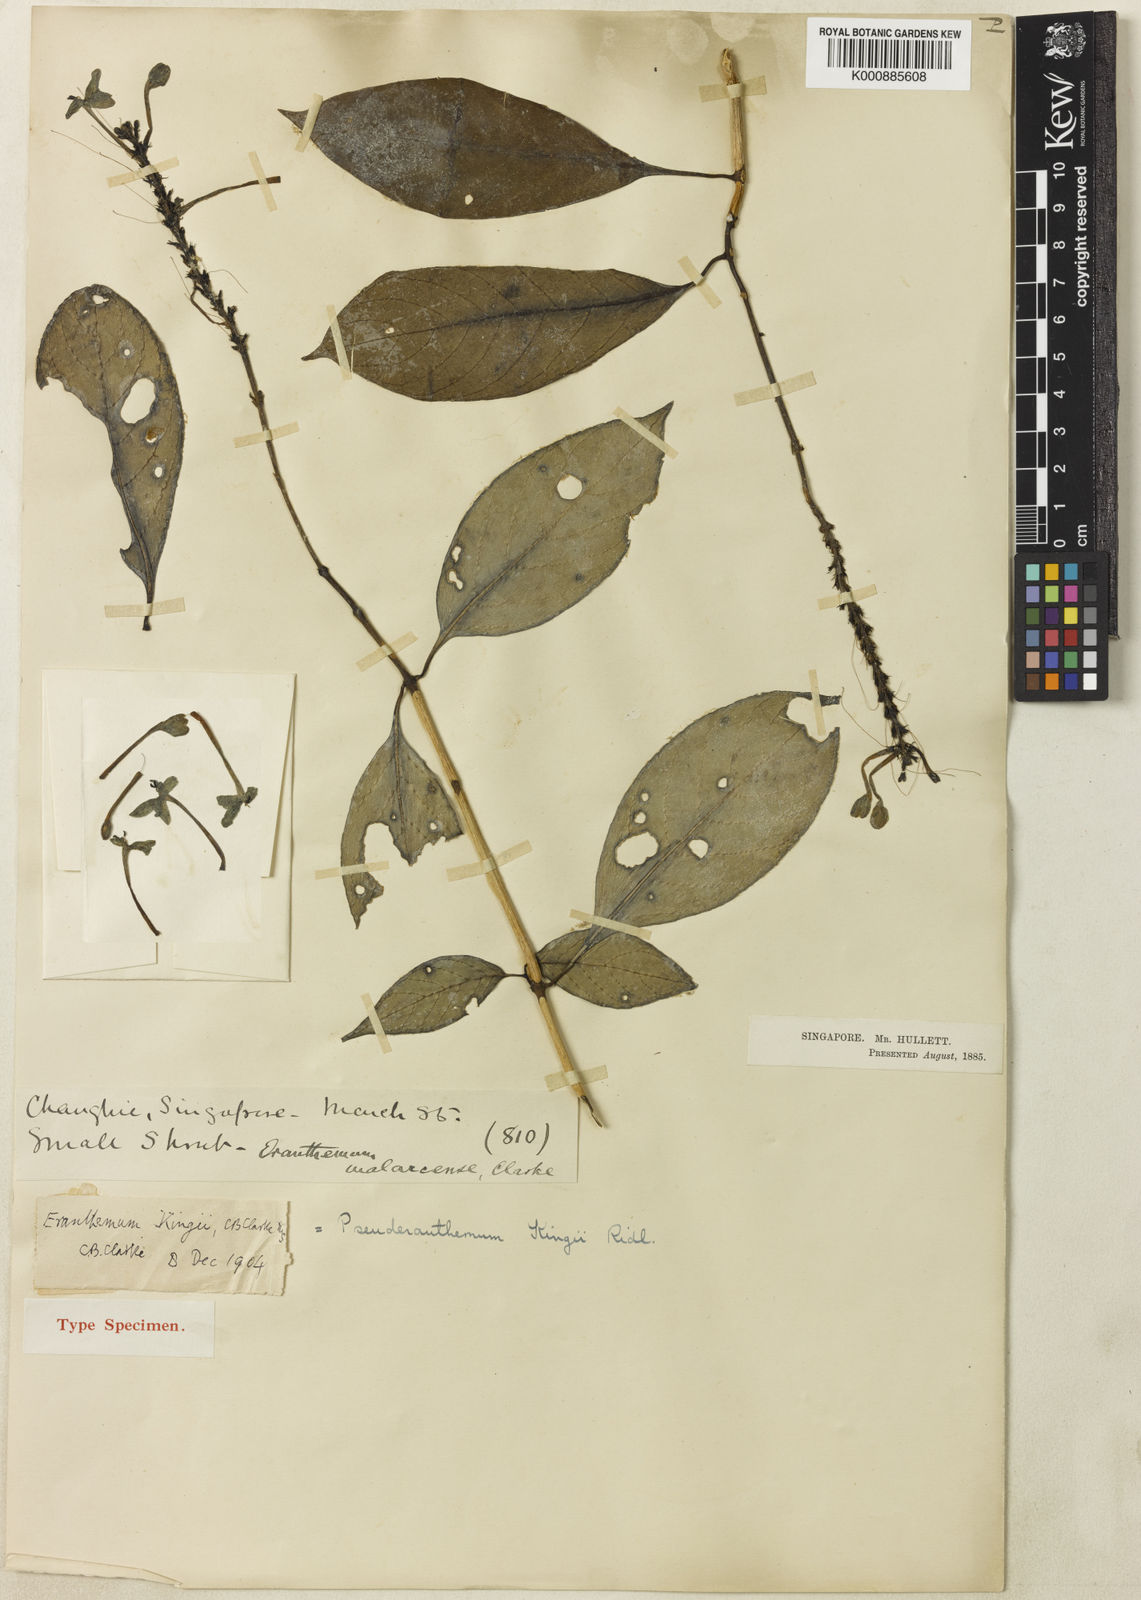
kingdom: Plantae
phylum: Tracheophyta
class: Magnoliopsida
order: Lamiales
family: Acanthaceae
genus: Pseuderanthemum
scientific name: Pseuderanthemum kingii
